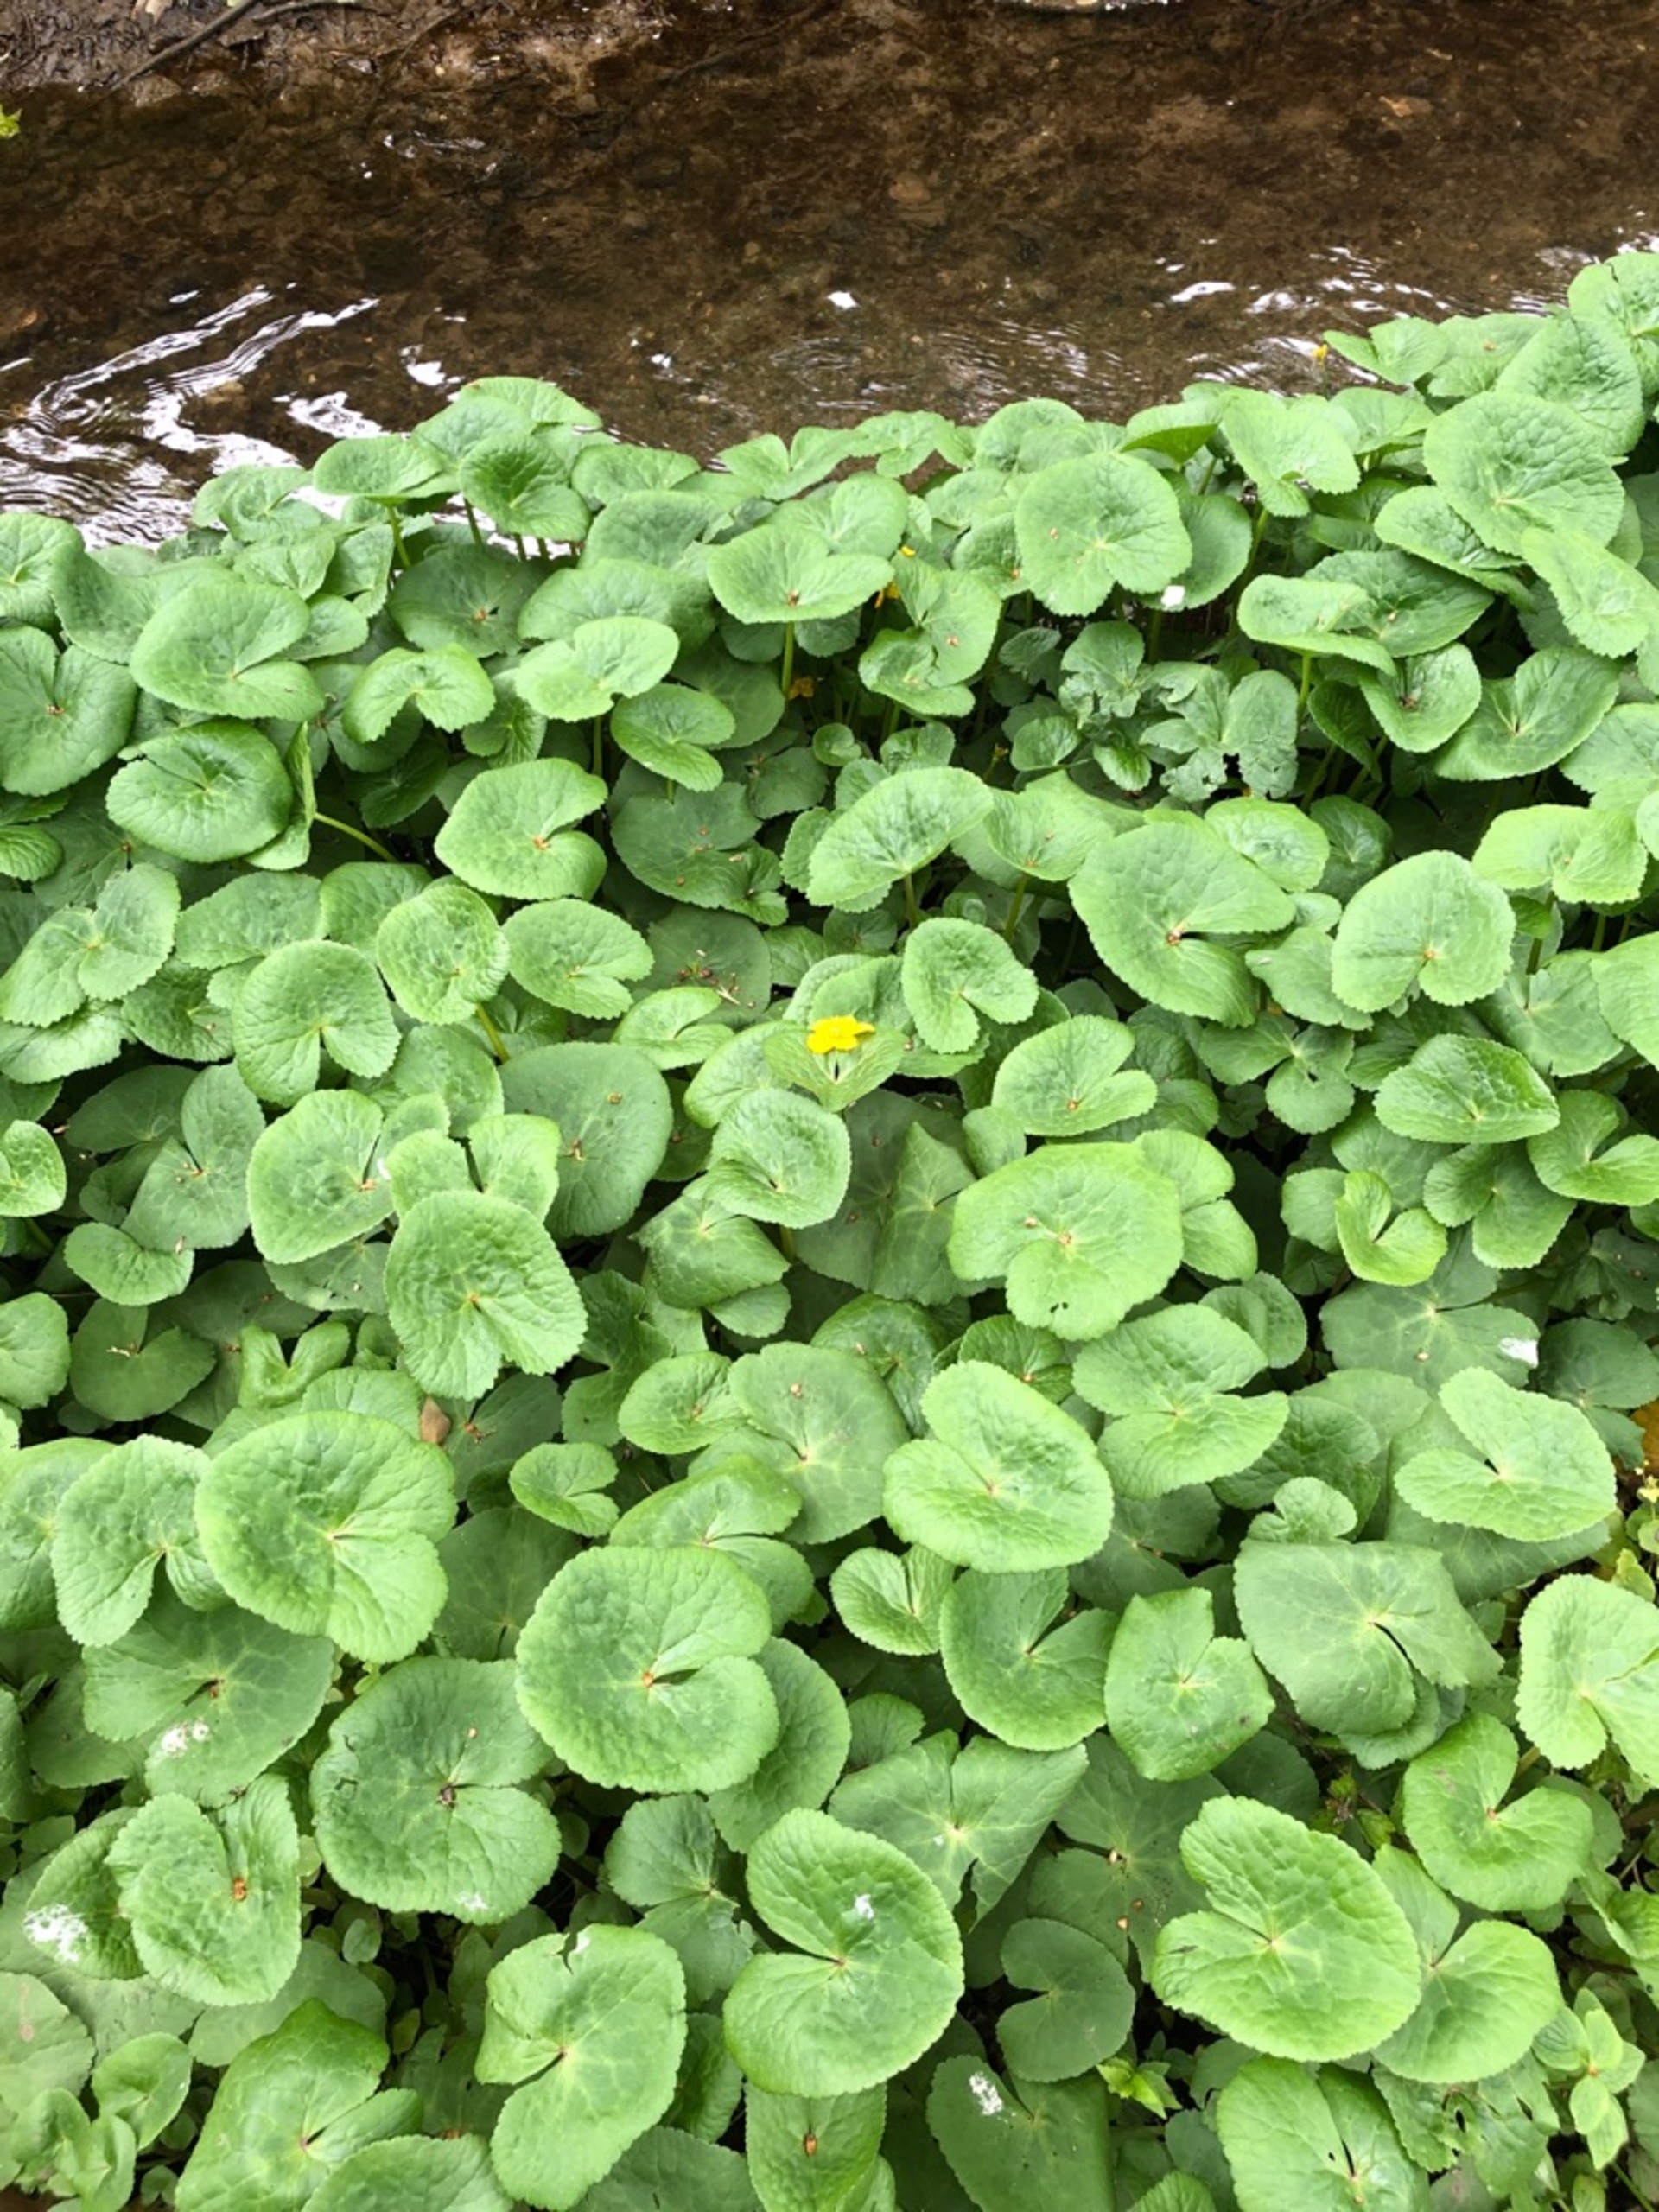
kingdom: Plantae
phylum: Tracheophyta
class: Magnoliopsida
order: Ranunculales
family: Ranunculaceae
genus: Caltha
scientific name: Caltha palustris
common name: Eng-kabbeleje
